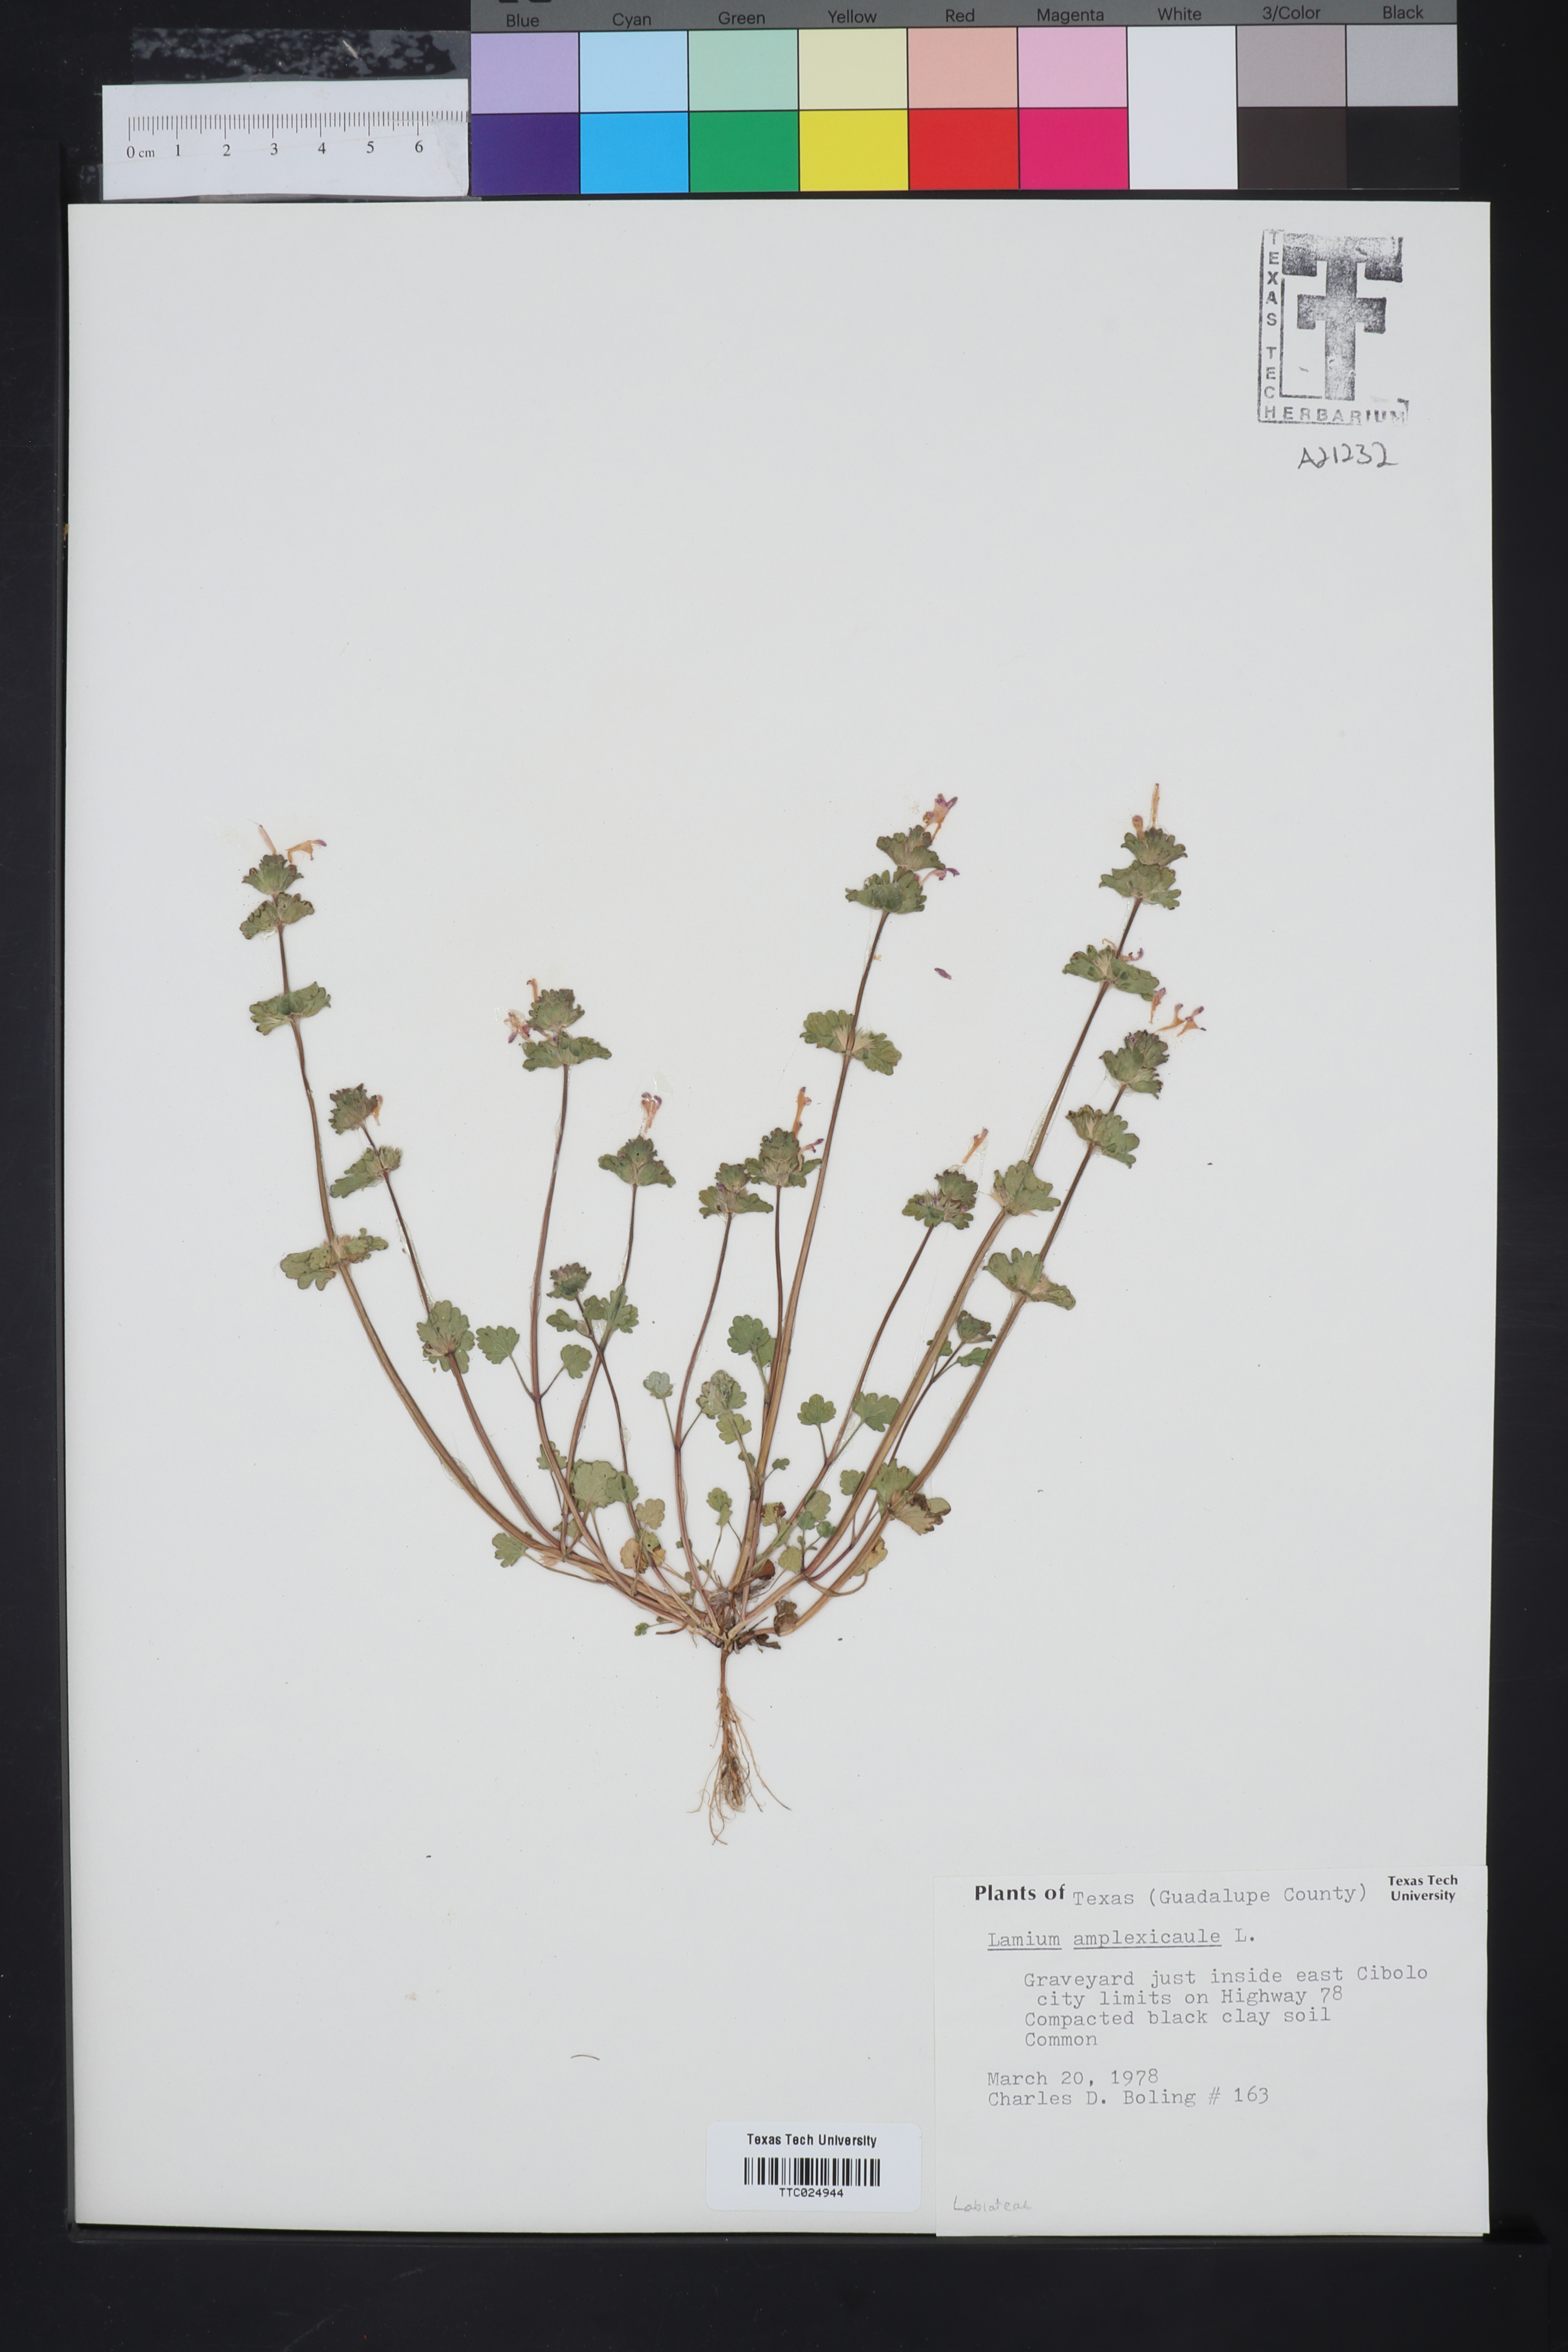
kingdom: Plantae
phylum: Tracheophyta
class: Magnoliopsida
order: Lamiales
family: Lamiaceae
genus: Lamium
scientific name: Lamium amplexicaule
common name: Henbit dead-nettle
